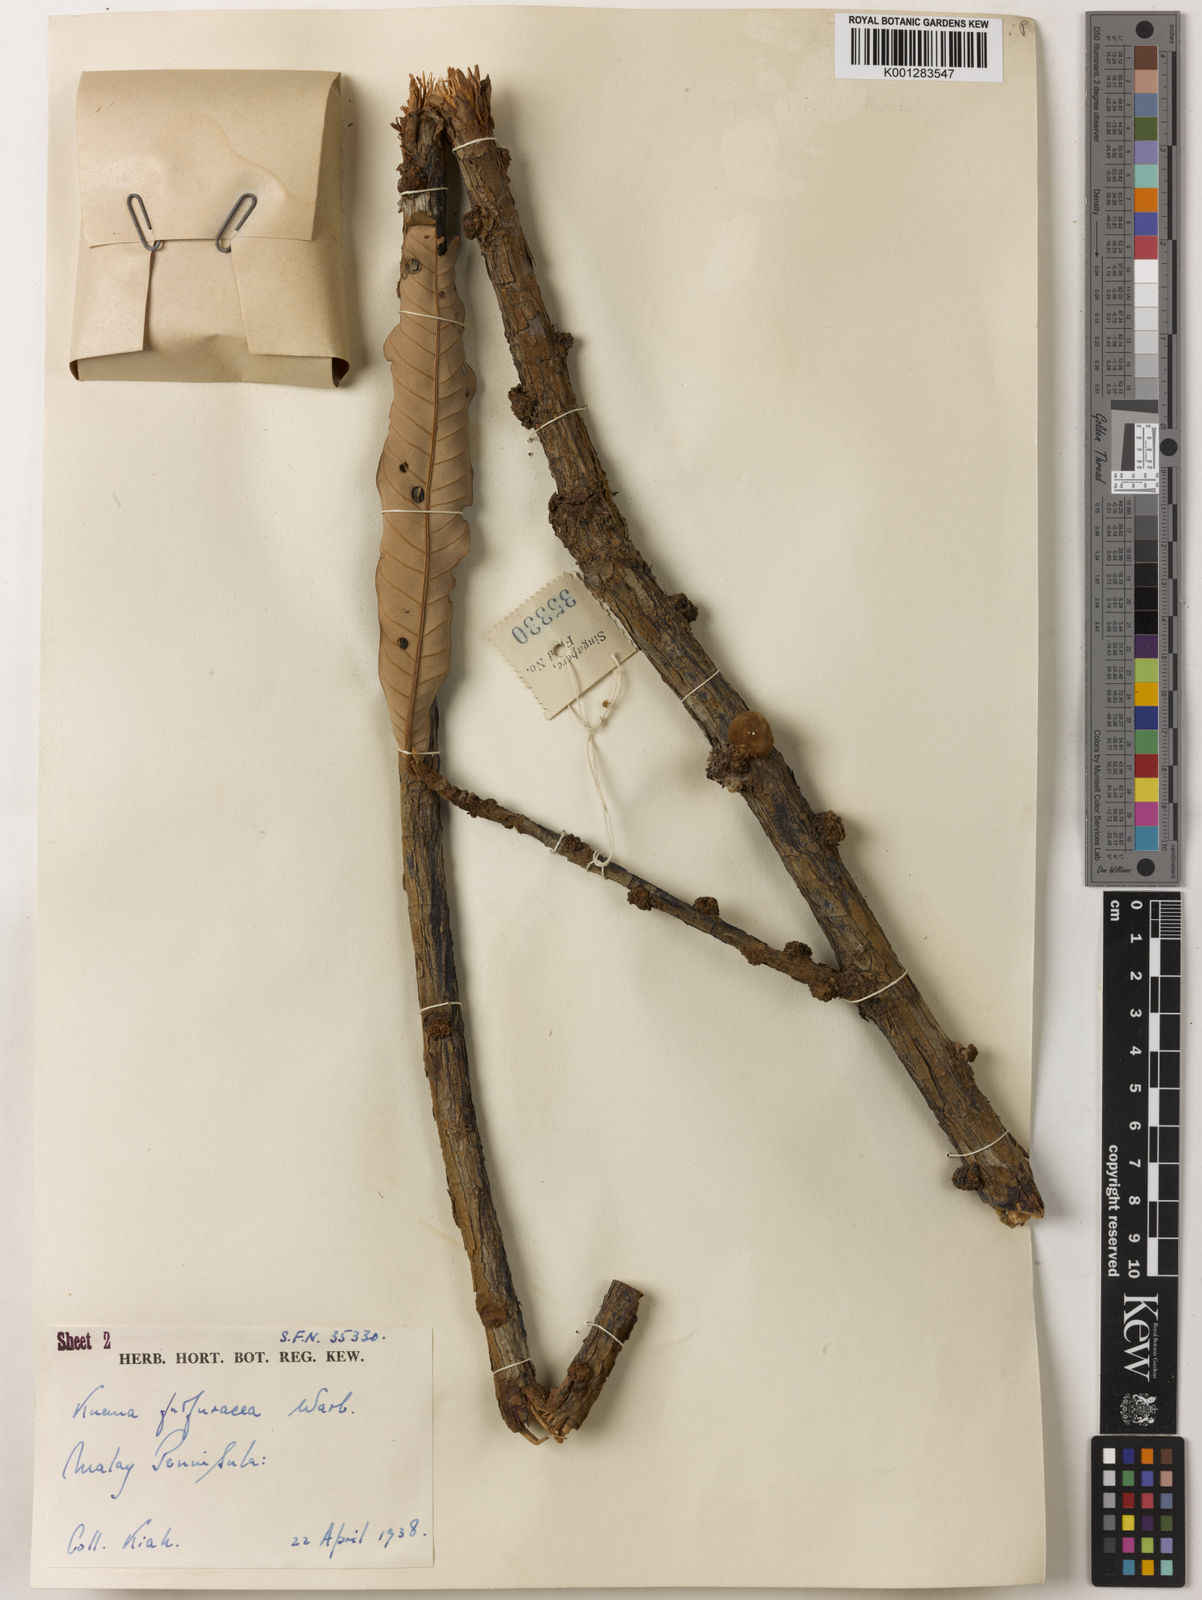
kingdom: Plantae
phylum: Tracheophyta
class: Magnoliopsida
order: Magnoliales
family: Myristicaceae
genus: Knema
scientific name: Knema furfuracea
